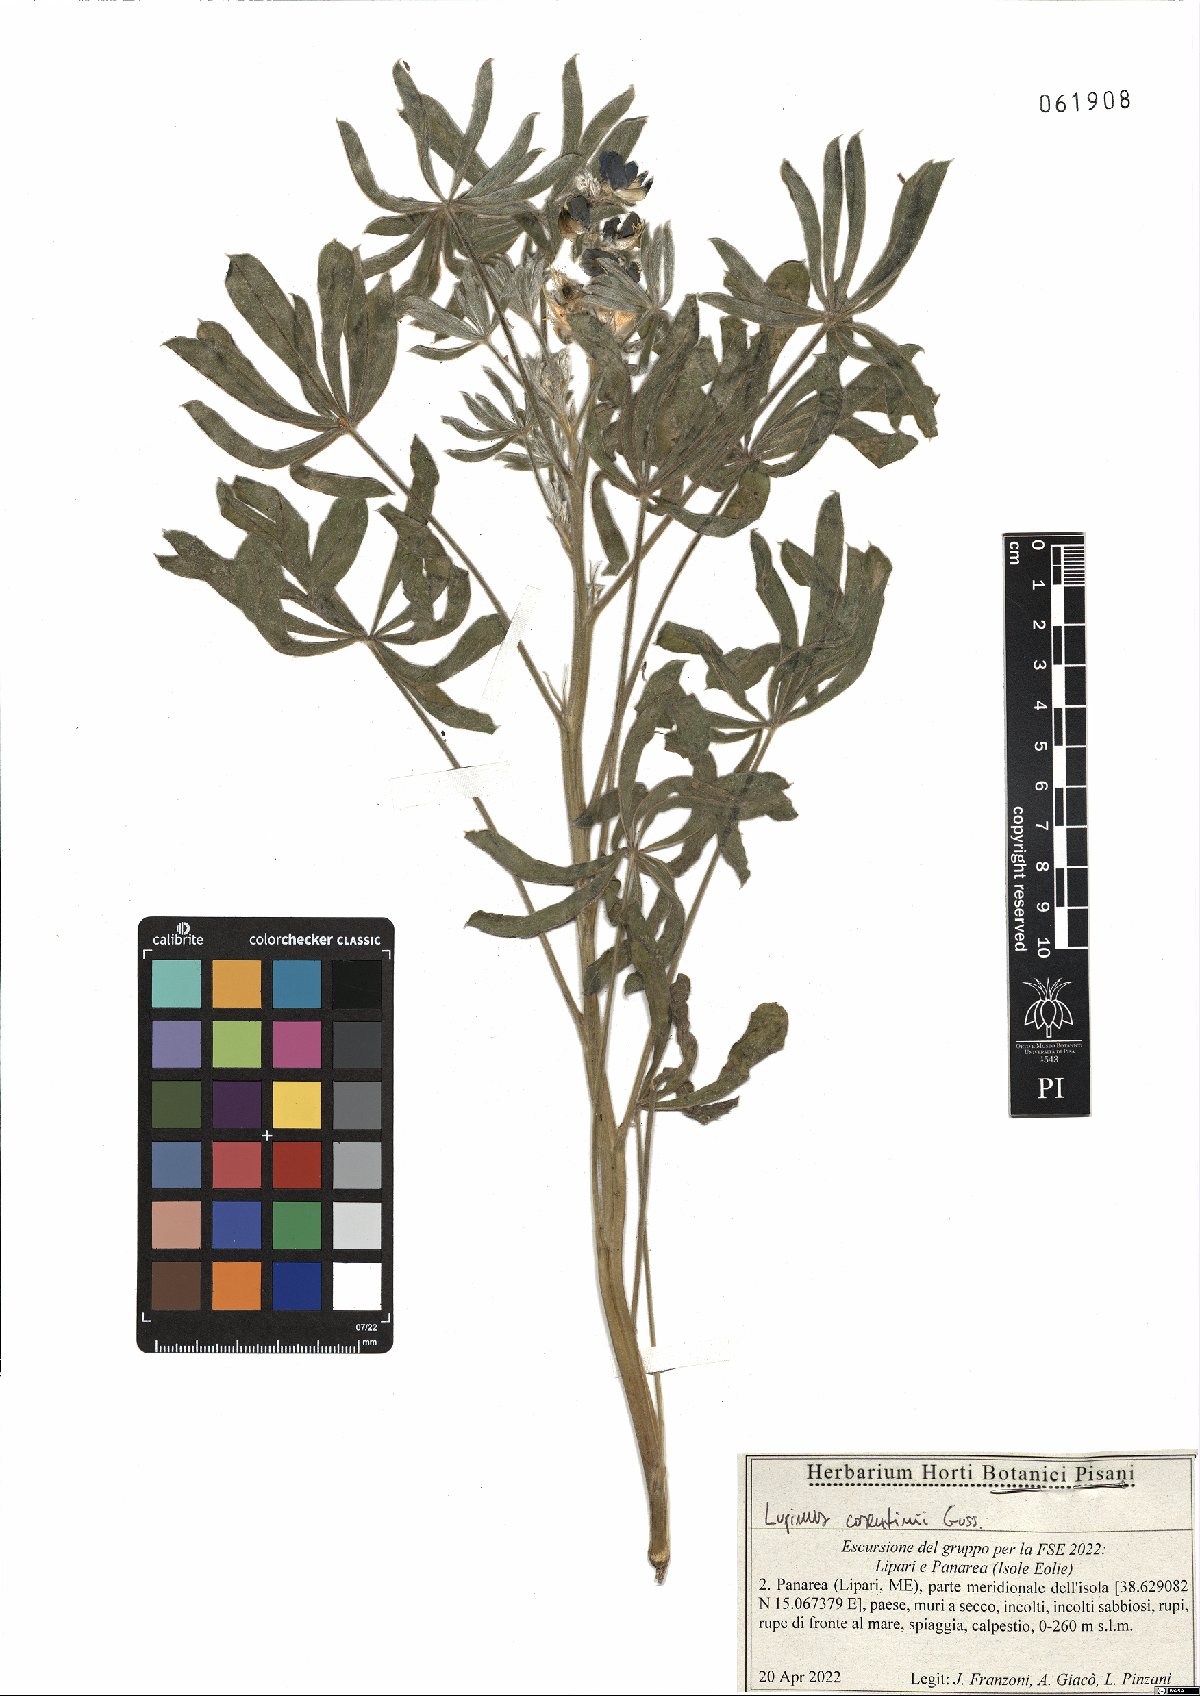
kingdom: Plantae
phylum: Tracheophyta
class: Magnoliopsida
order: Fabales
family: Fabaceae
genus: Lupinus
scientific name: Lupinus cosentinii
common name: Hairy blue lupin
